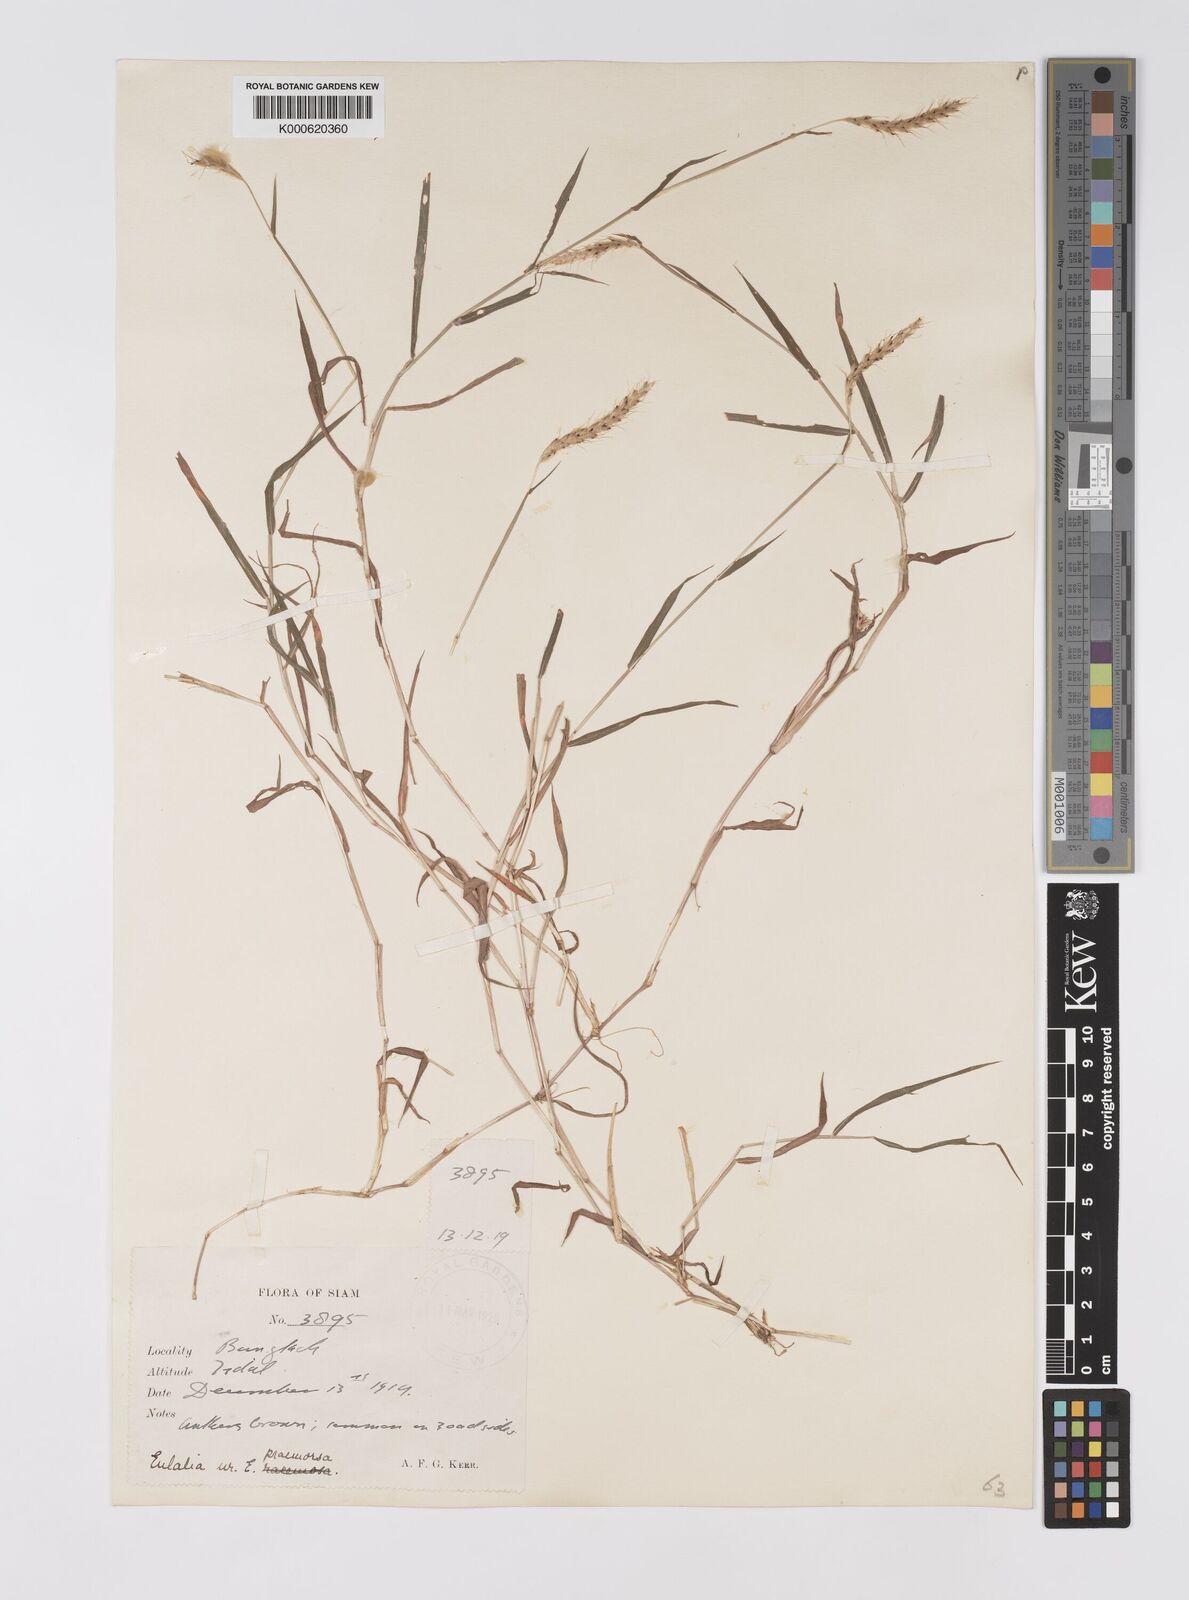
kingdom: Plantae
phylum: Tracheophyta
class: Liliopsida
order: Poales
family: Poaceae
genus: Polytrias
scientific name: Polytrias indica
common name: Indian murainagrass
